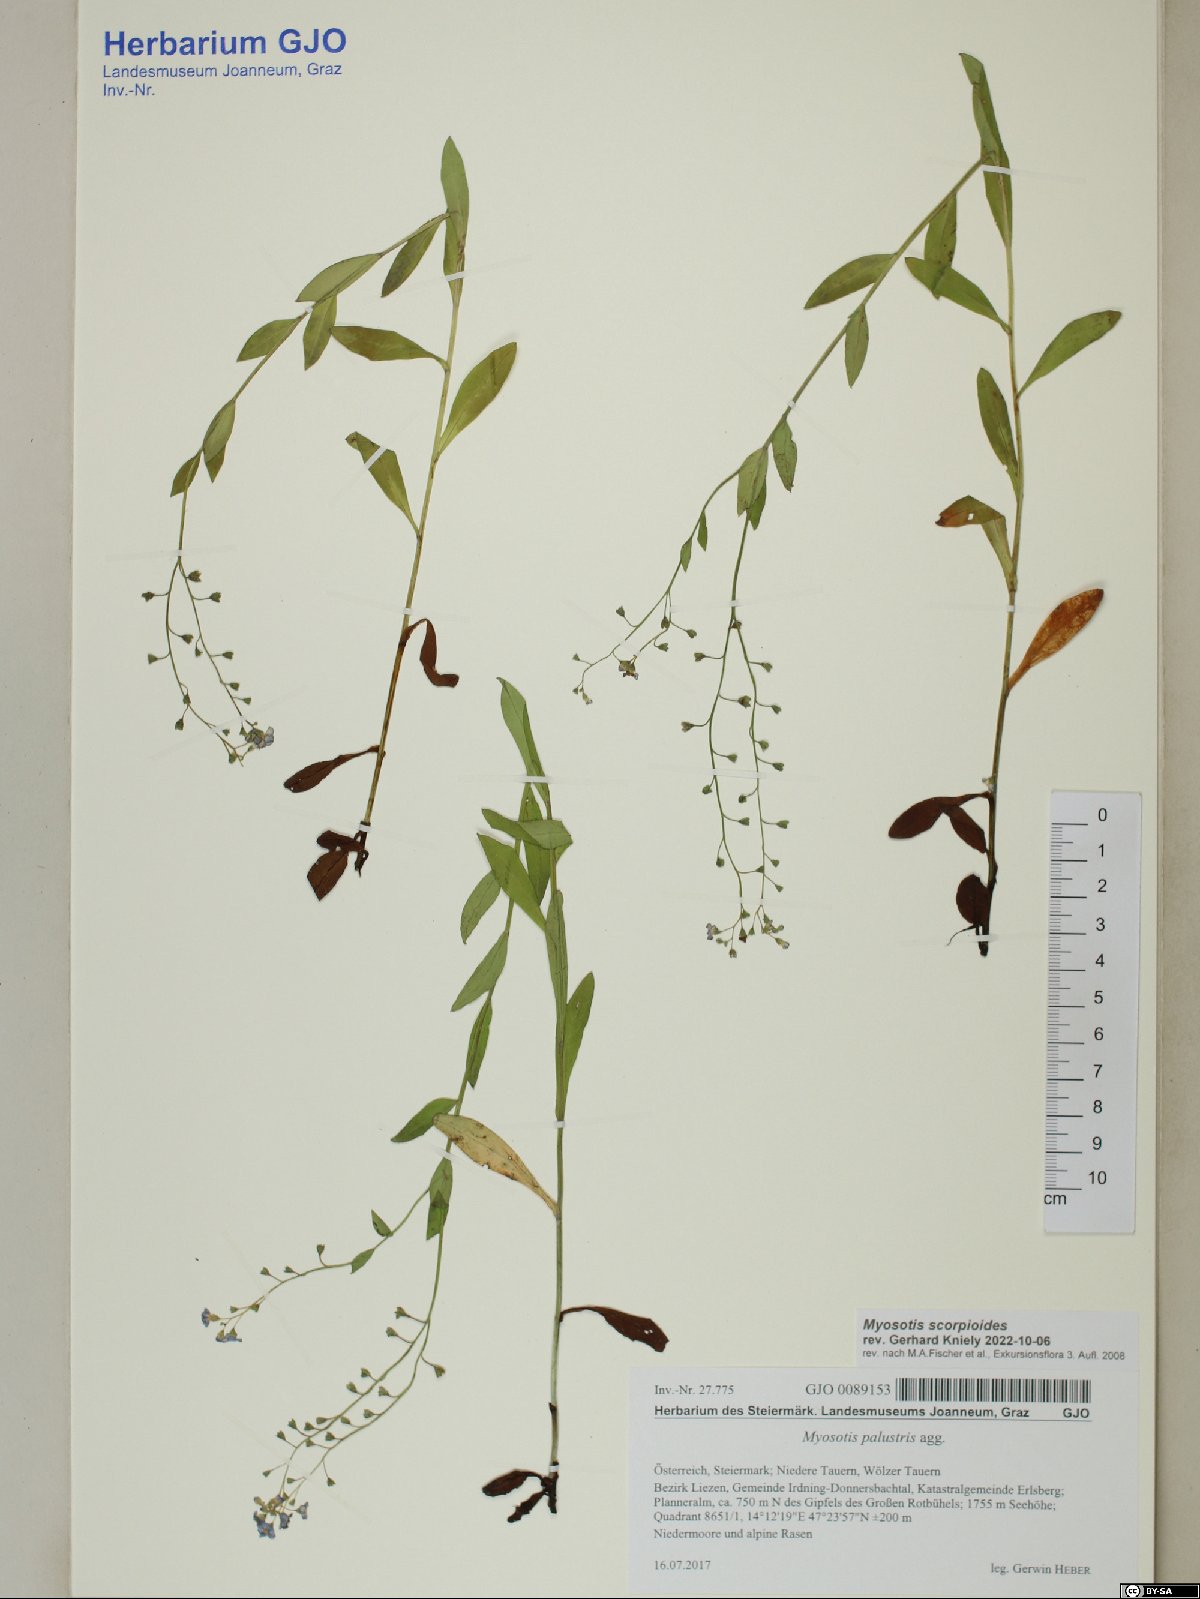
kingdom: Plantae
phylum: Tracheophyta
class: Magnoliopsida
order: Boraginales
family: Boraginaceae
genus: Myosotis
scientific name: Myosotis scorpioides
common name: Water forget-me-not
